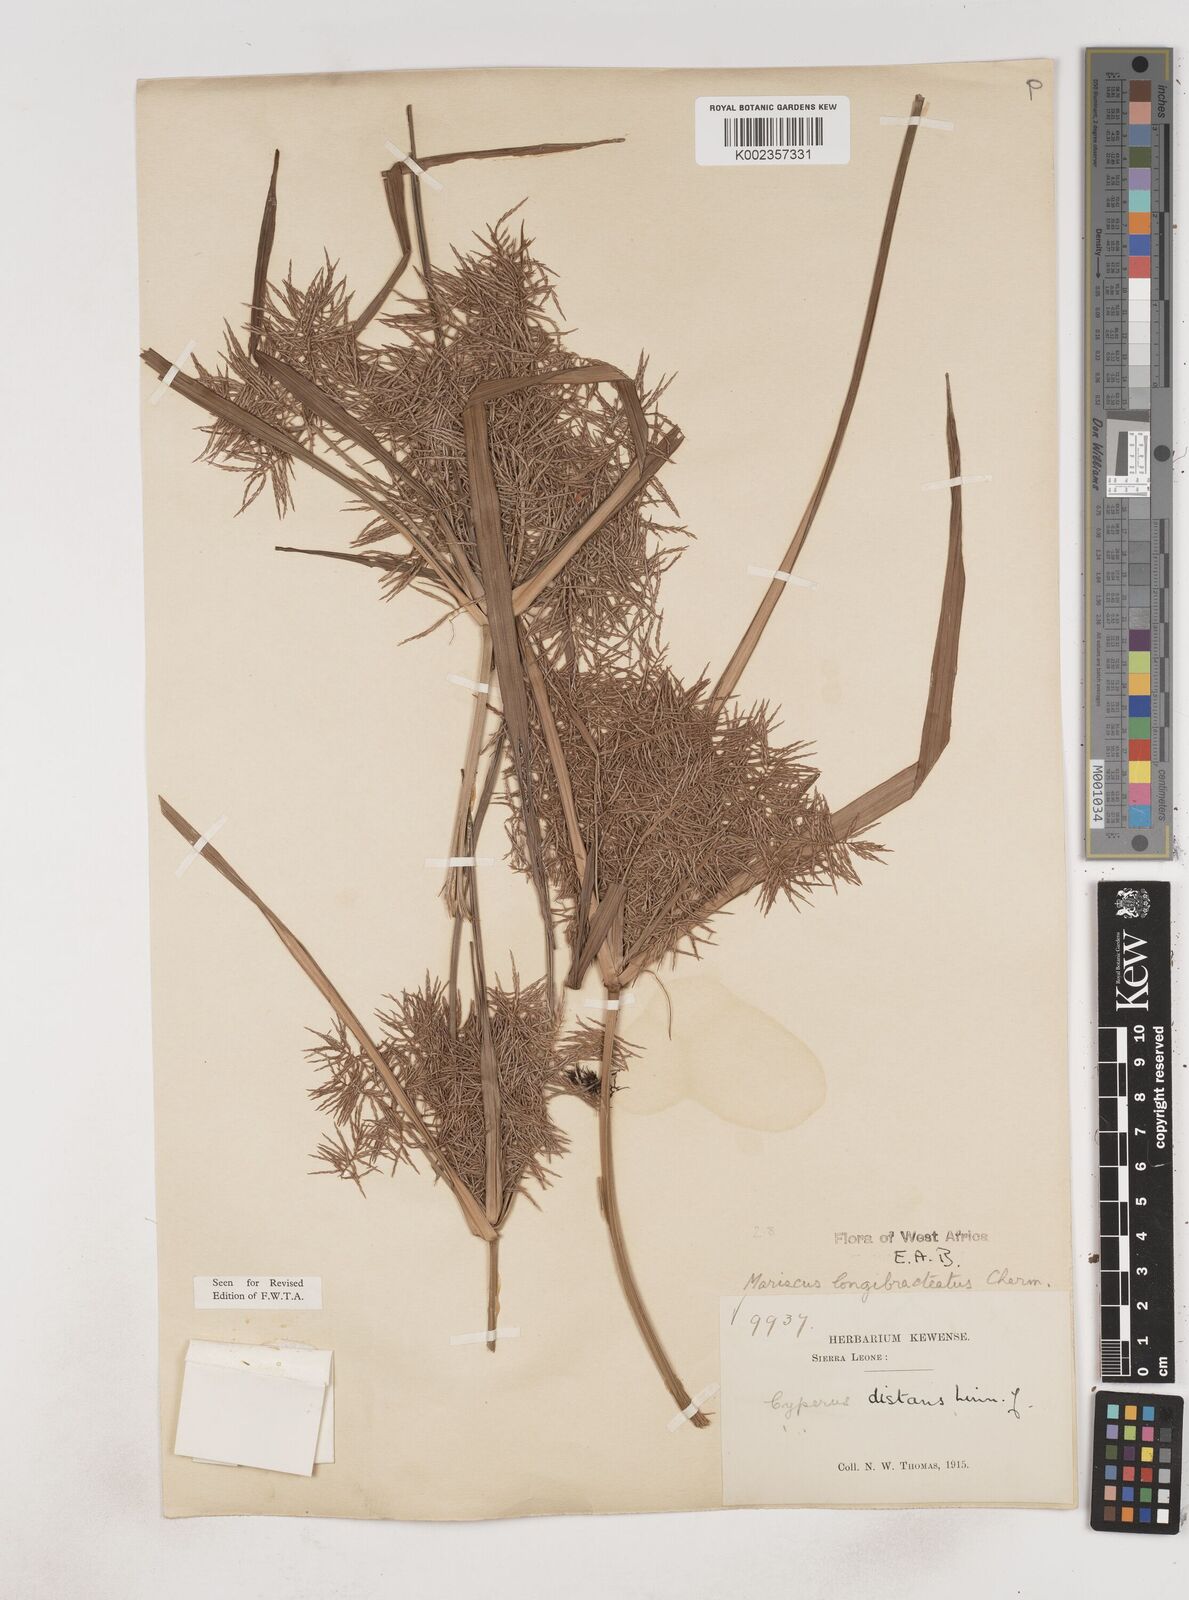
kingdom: Plantae
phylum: Tracheophyta
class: Liliopsida
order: Poales
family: Cyperaceae
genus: Cyperus
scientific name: Cyperus distans
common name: Slender cyperus
